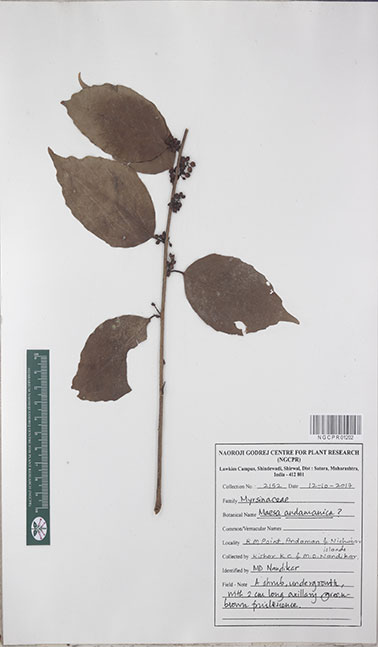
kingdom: Plantae
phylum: Tracheophyta
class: Magnoliopsida
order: Ericales
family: Primulaceae
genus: Maesa
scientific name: Maesa andamanica
